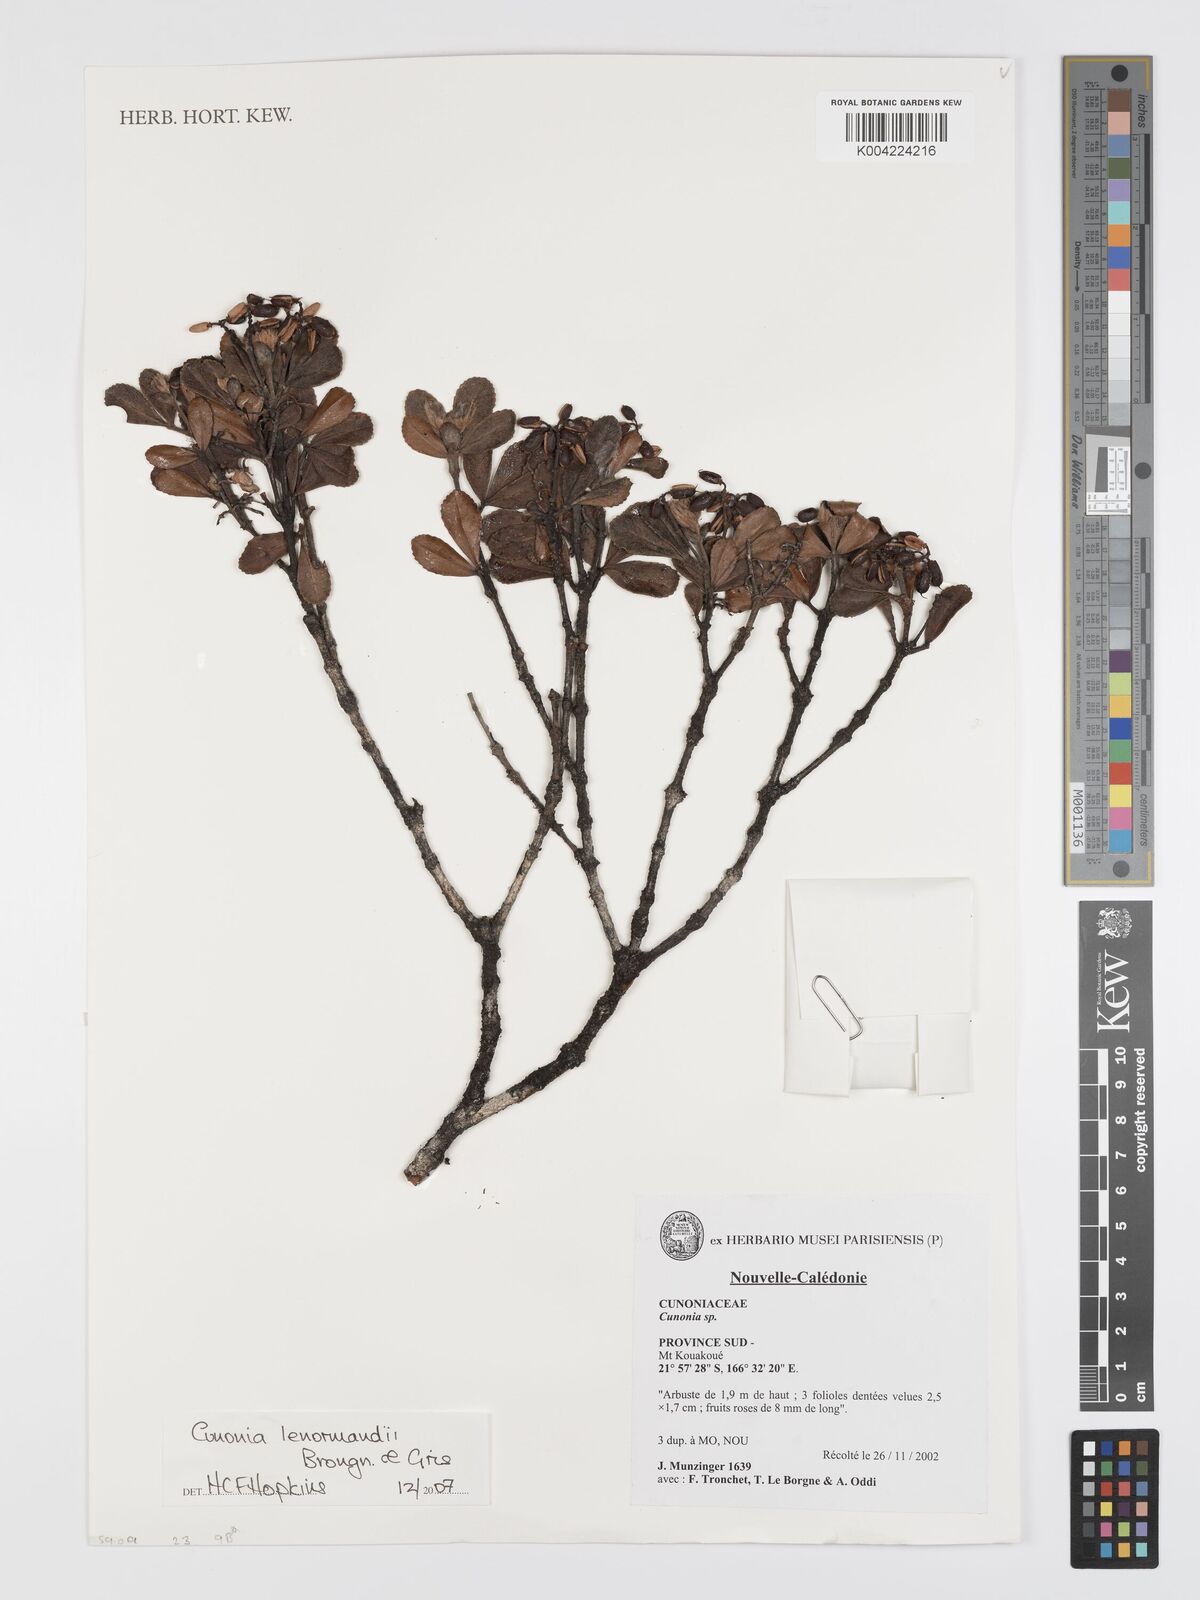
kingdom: Plantae
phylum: Tracheophyta
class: Magnoliopsida
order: Oxalidales
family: Cunoniaceae
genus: Cunonia
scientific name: Cunonia lenormandii
